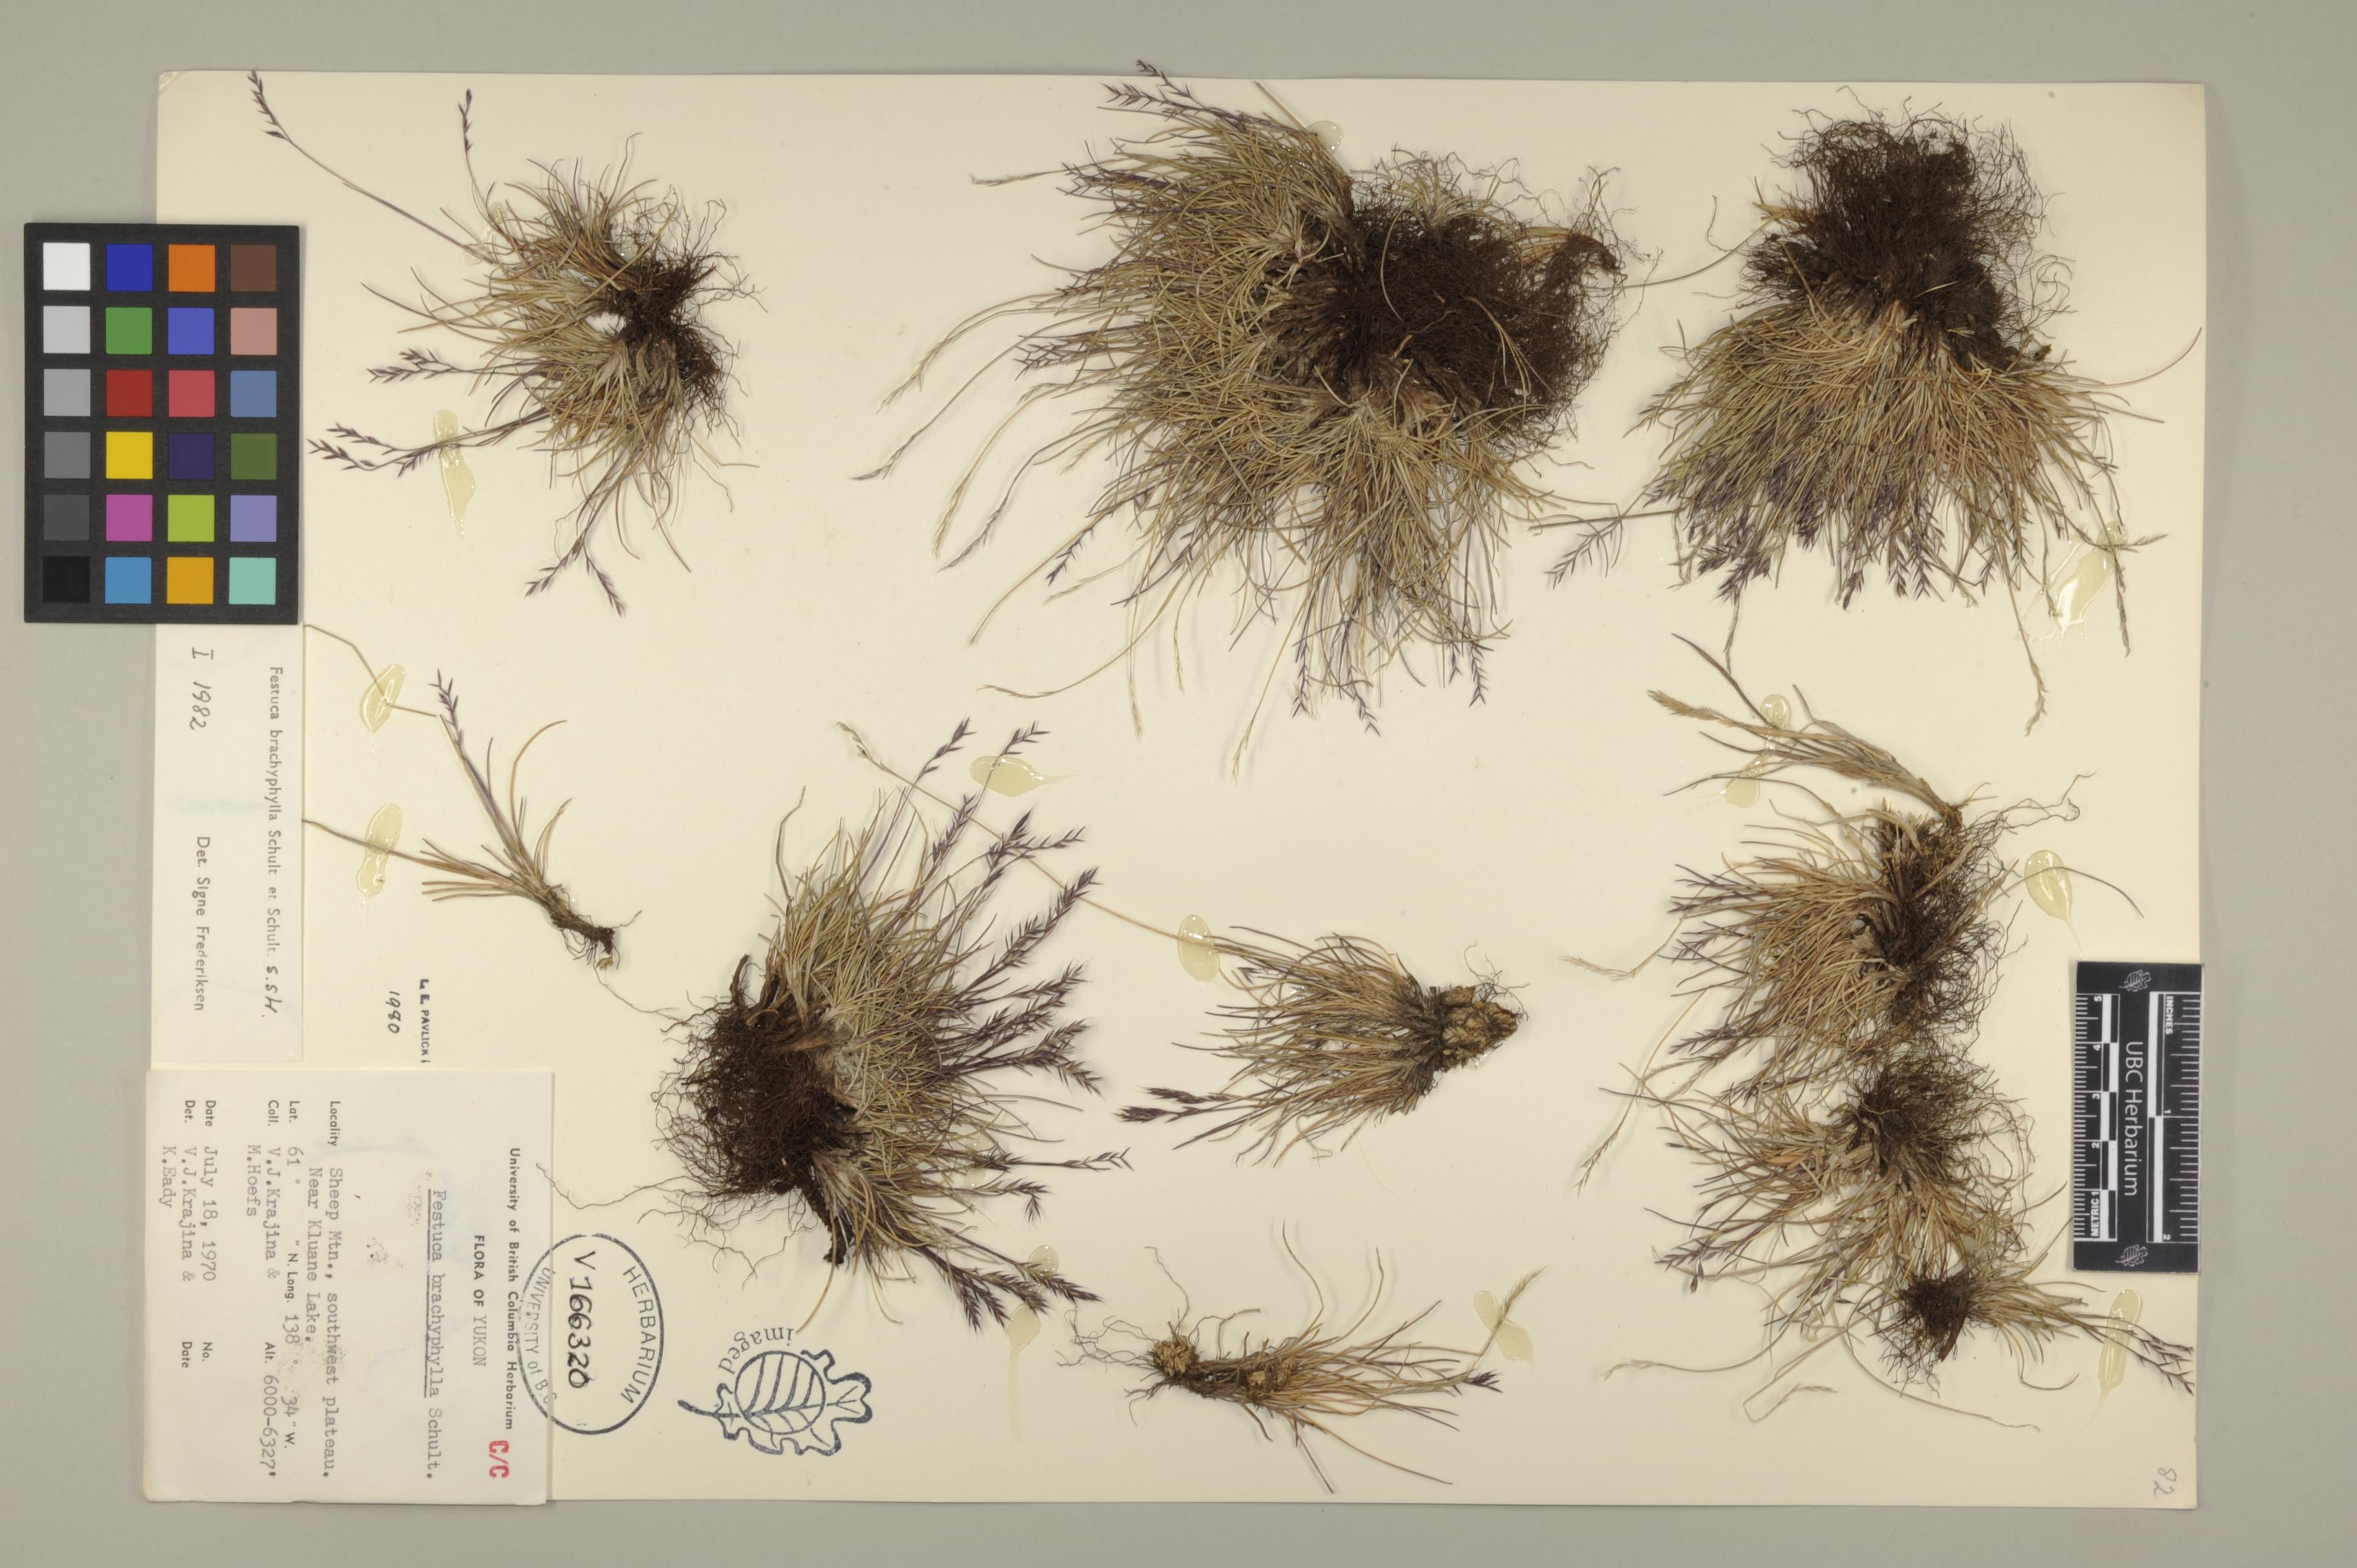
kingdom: Plantae
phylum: Tracheophyta
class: Liliopsida
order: Poales
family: Poaceae
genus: Festuca
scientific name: Festuca brachyphylla
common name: Alpine fescue
